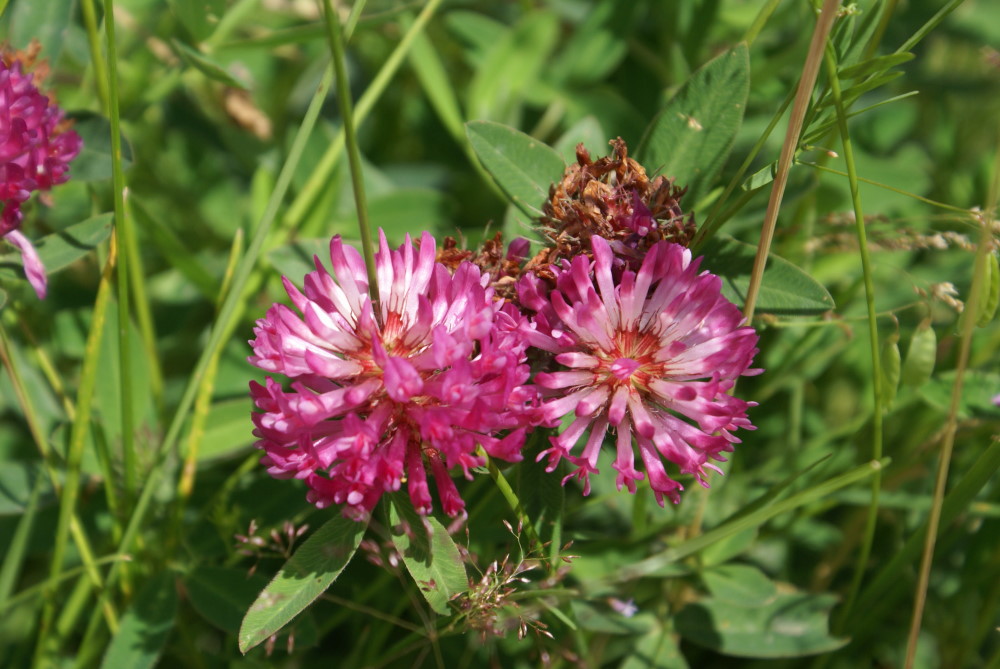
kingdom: Plantae
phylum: Tracheophyta
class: Magnoliopsida
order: Fabales
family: Fabaceae
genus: Trifolium
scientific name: Trifolium medium
